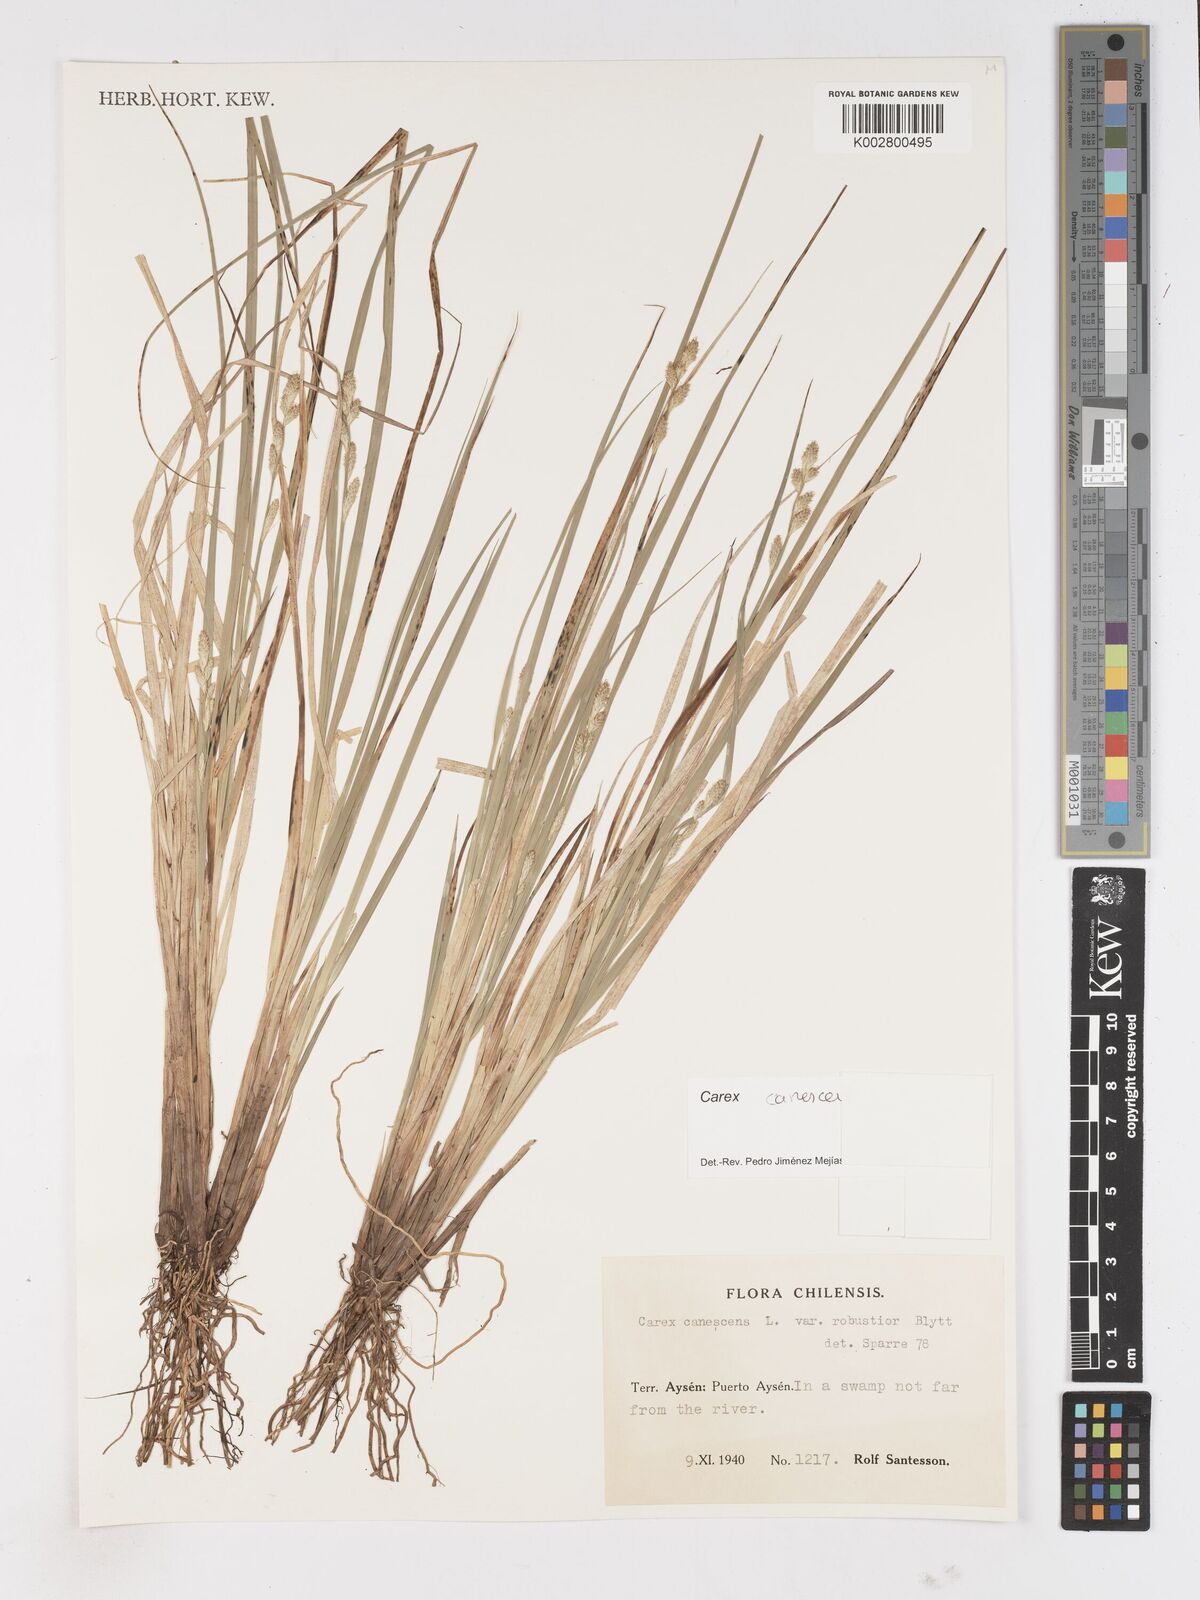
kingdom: Plantae
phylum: Tracheophyta
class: Liliopsida
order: Poales
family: Cyperaceae
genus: Carex
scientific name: Carex canescens
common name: White sedge
